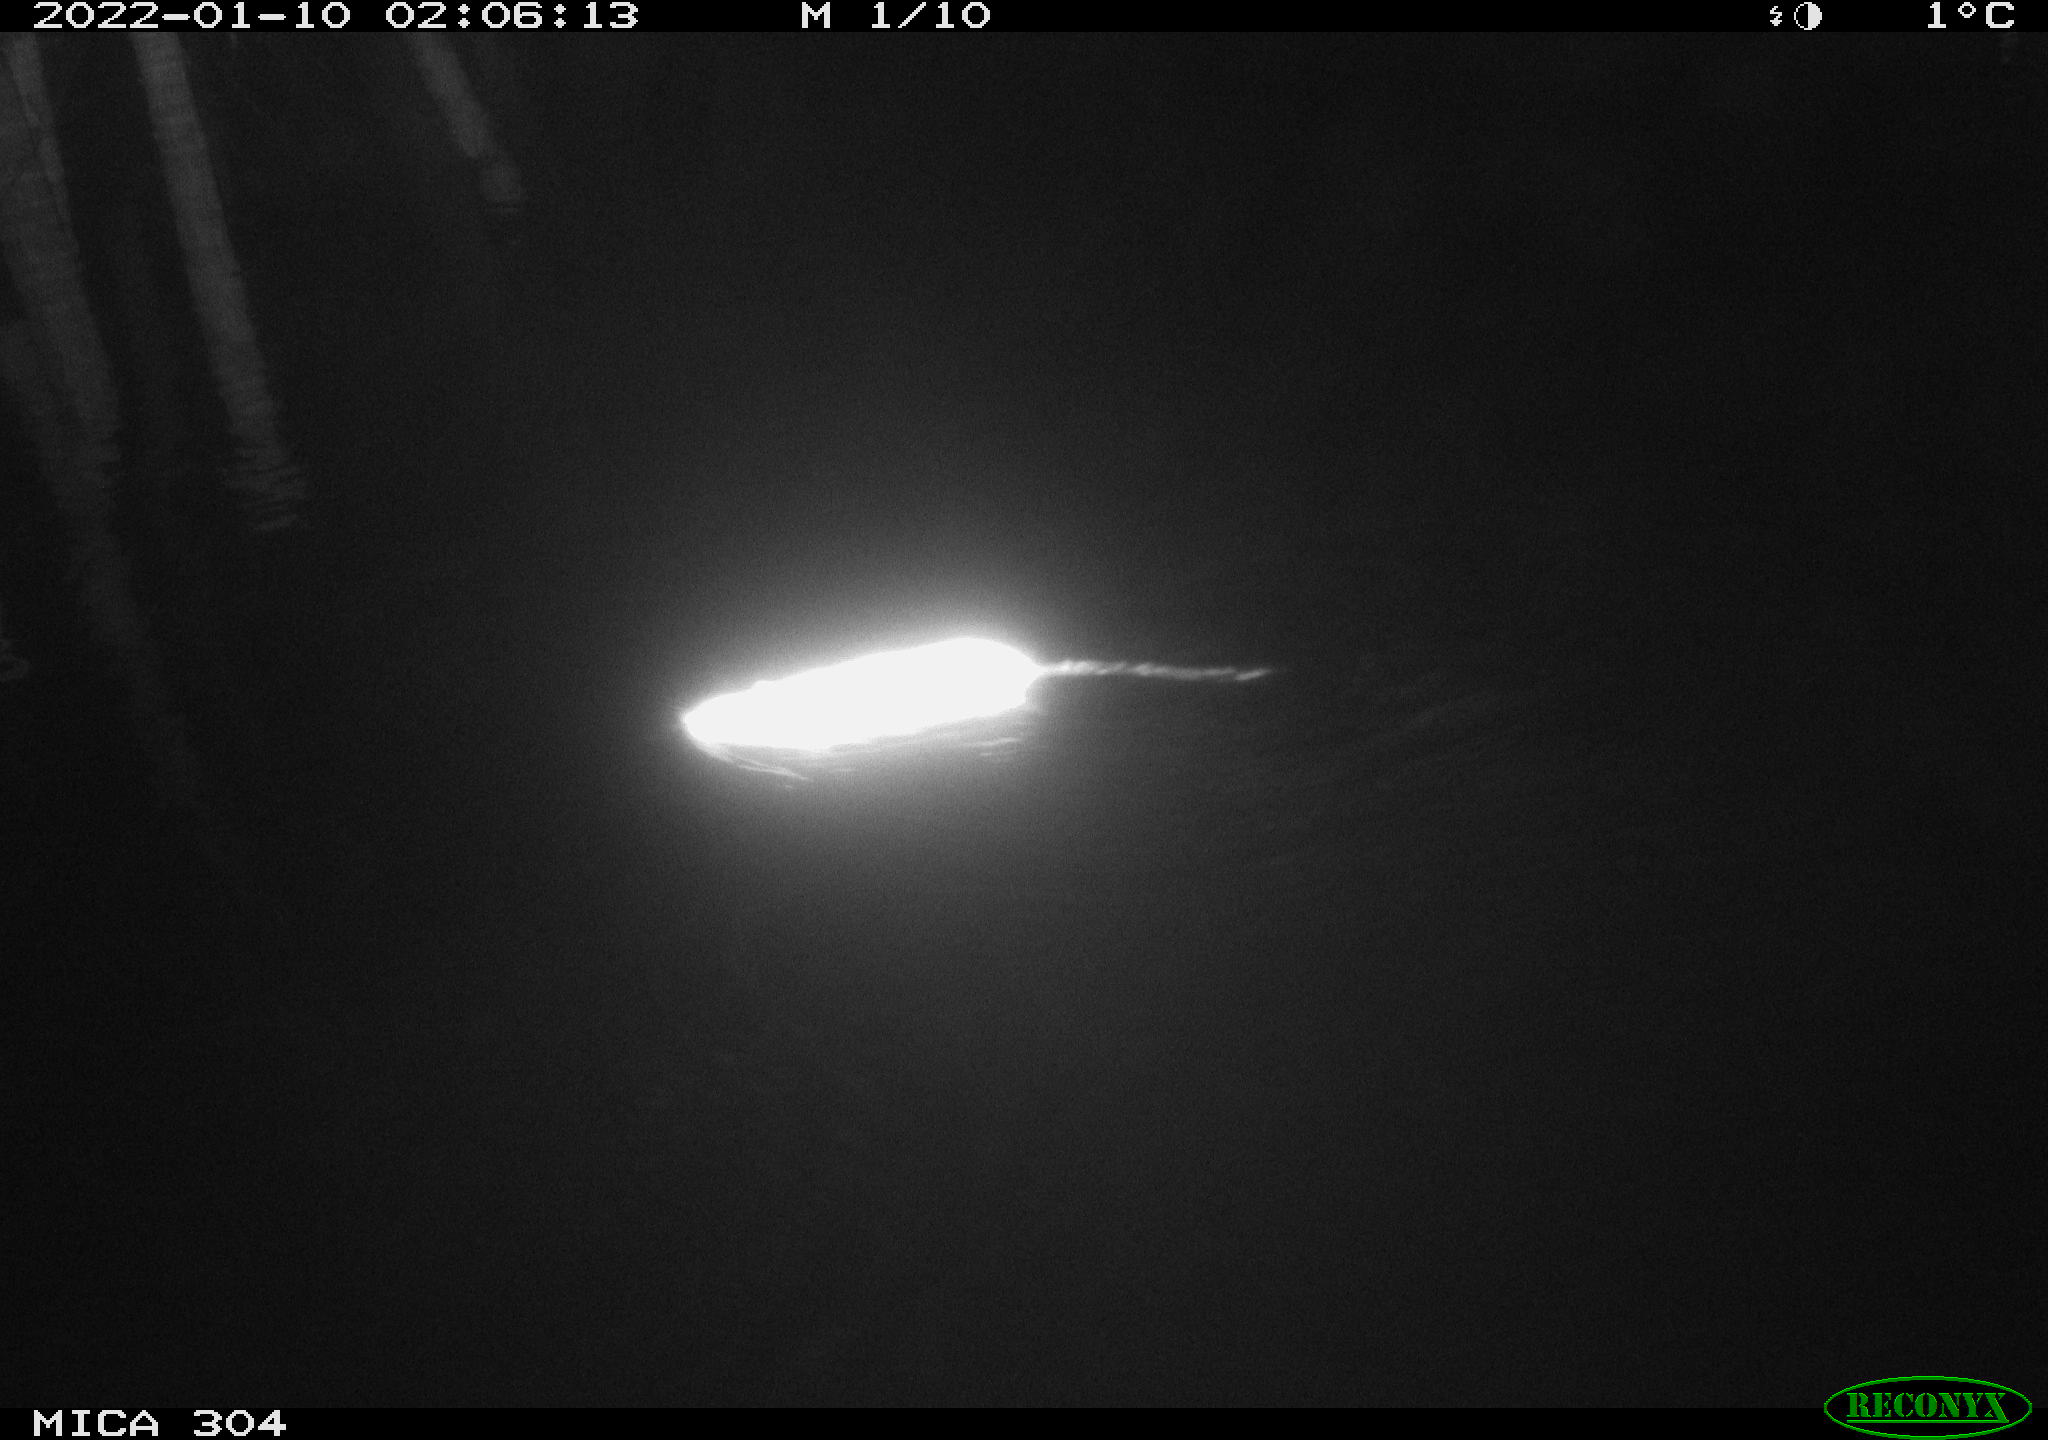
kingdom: Animalia
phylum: Chordata
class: Mammalia
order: Rodentia
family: Muridae
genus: Rattus
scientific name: Rattus norvegicus
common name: Brown rat
